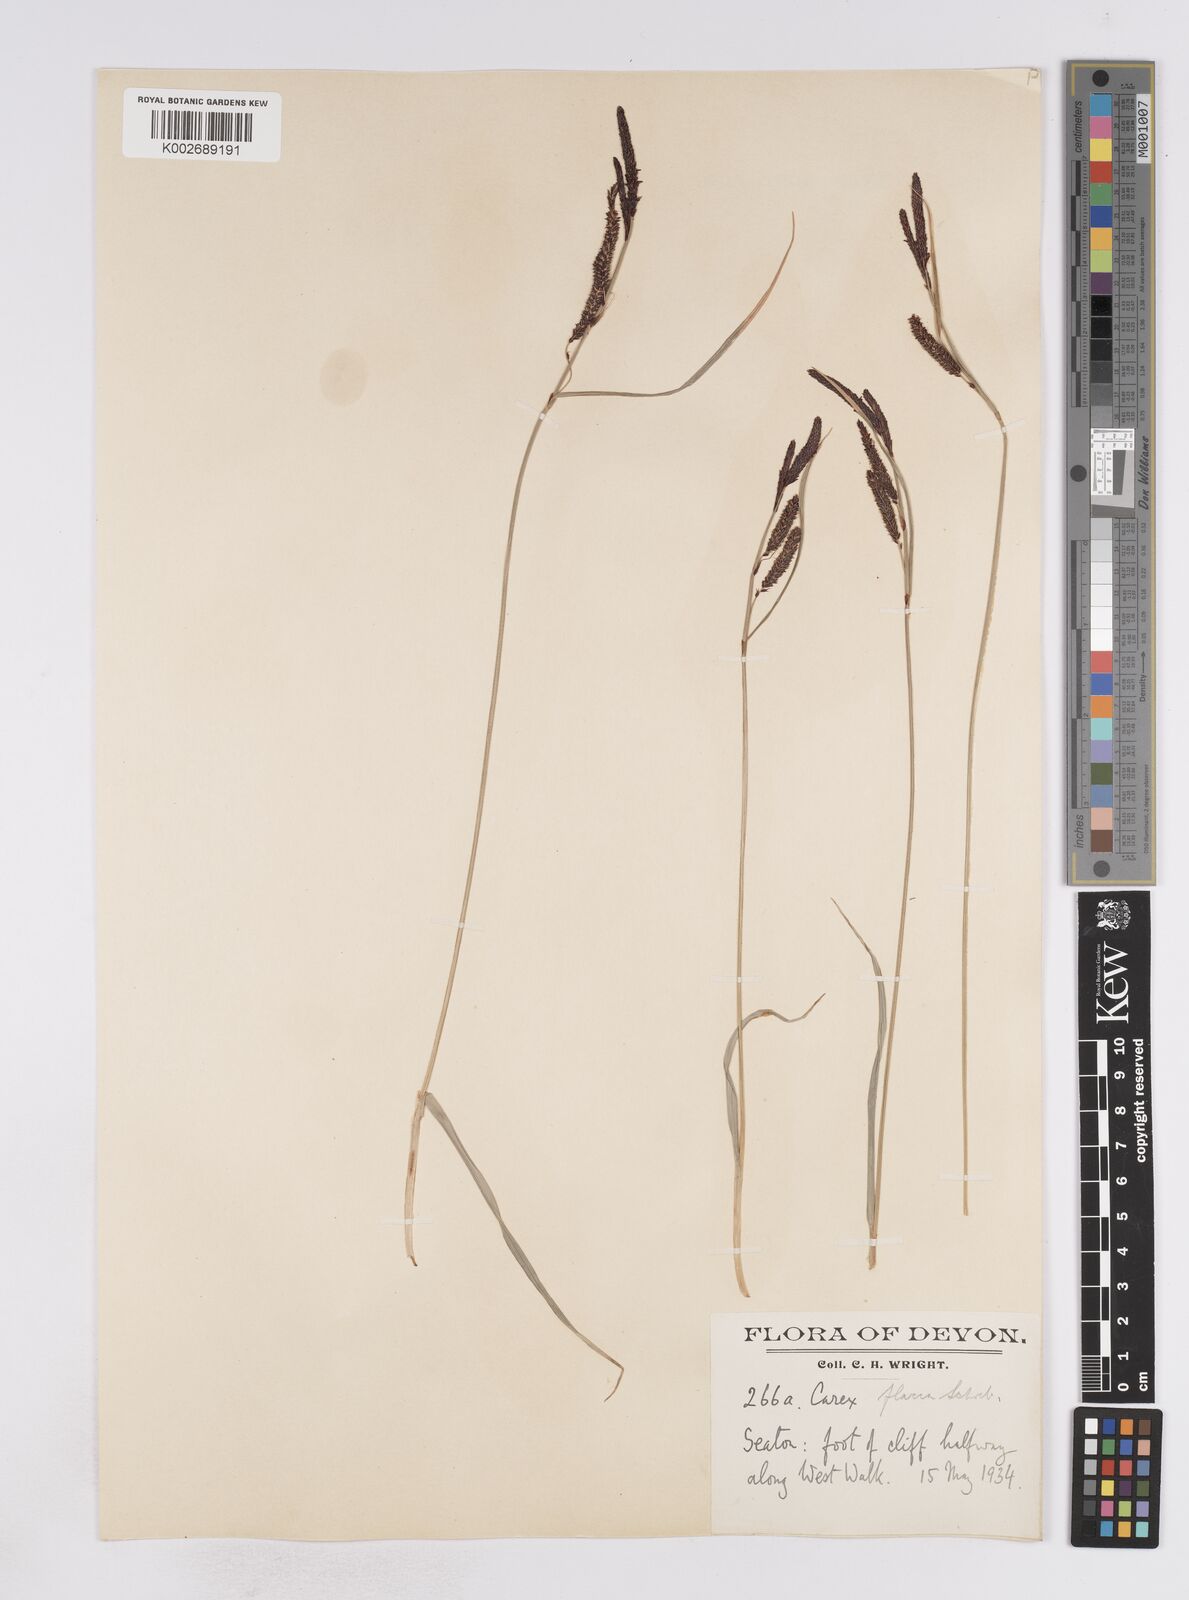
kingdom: Plantae
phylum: Tracheophyta
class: Liliopsida
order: Poales
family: Cyperaceae
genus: Carex
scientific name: Carex flacca
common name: Glaucous sedge
